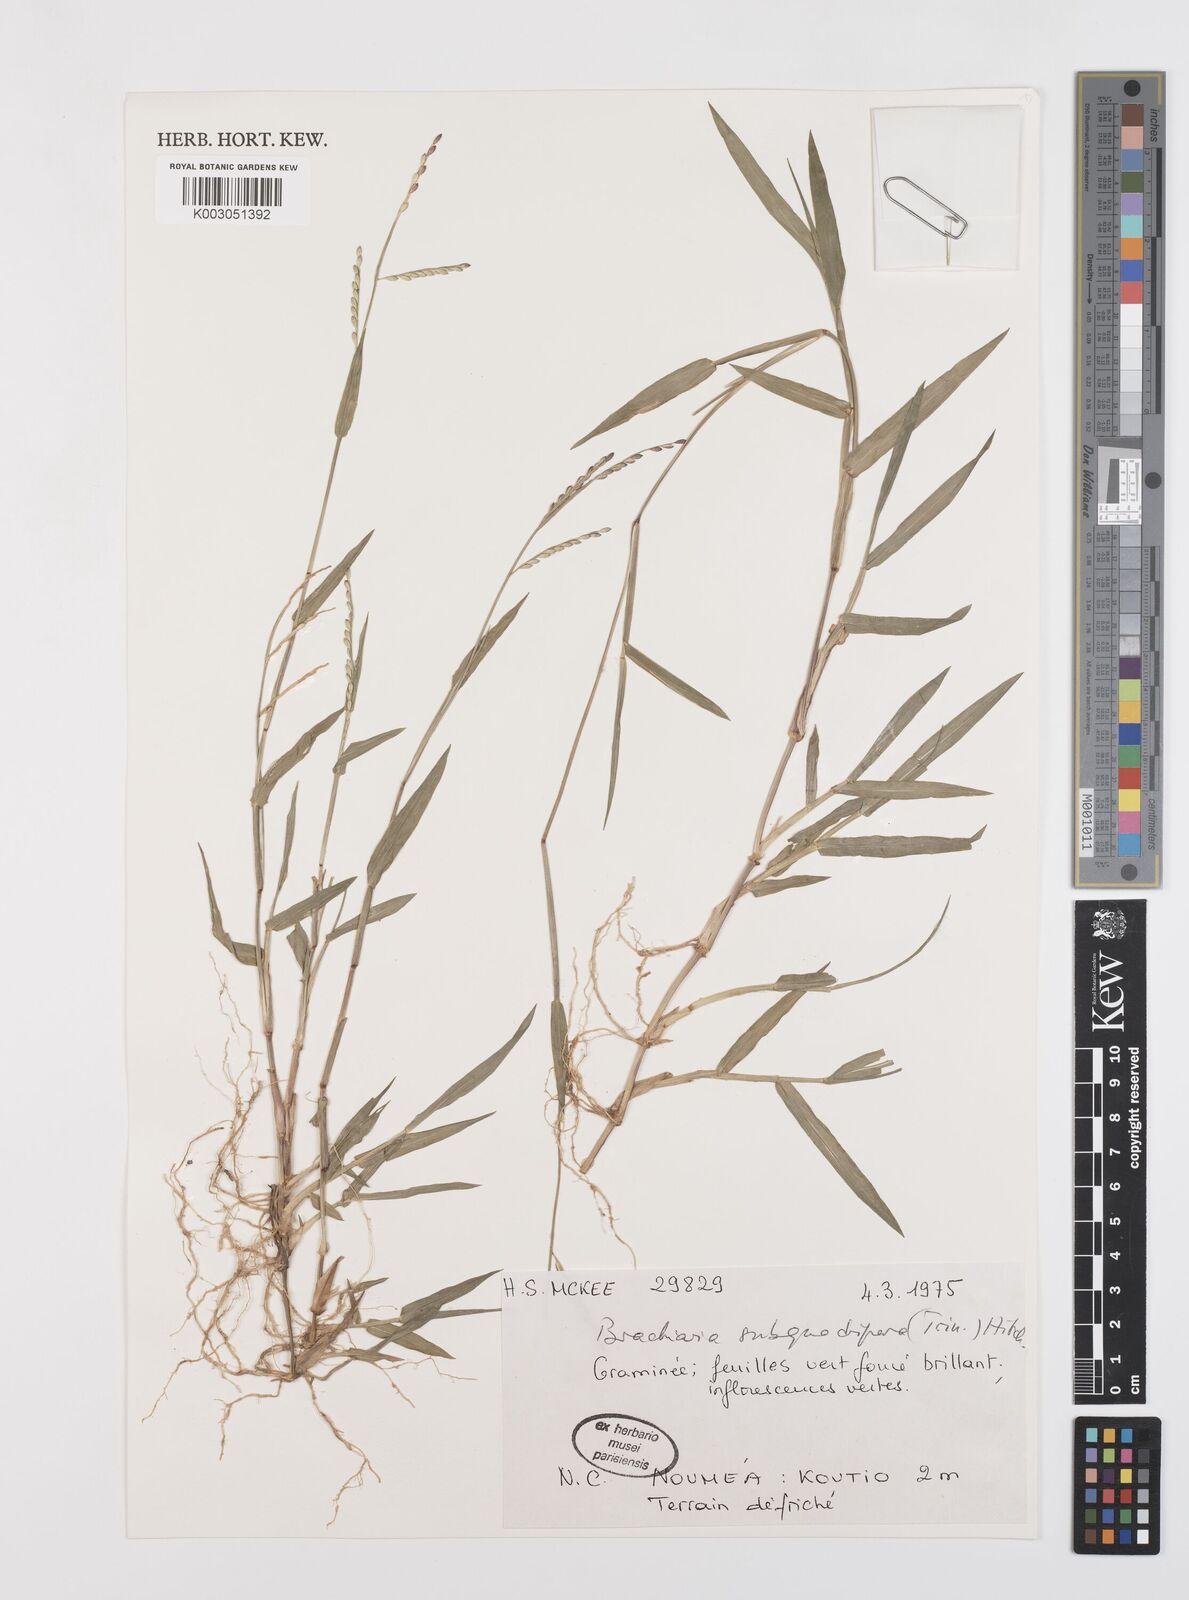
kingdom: Plantae
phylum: Tracheophyta
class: Liliopsida
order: Poales
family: Poaceae
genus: Urochloa
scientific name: Urochloa subquadripara
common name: Armgrass millet
